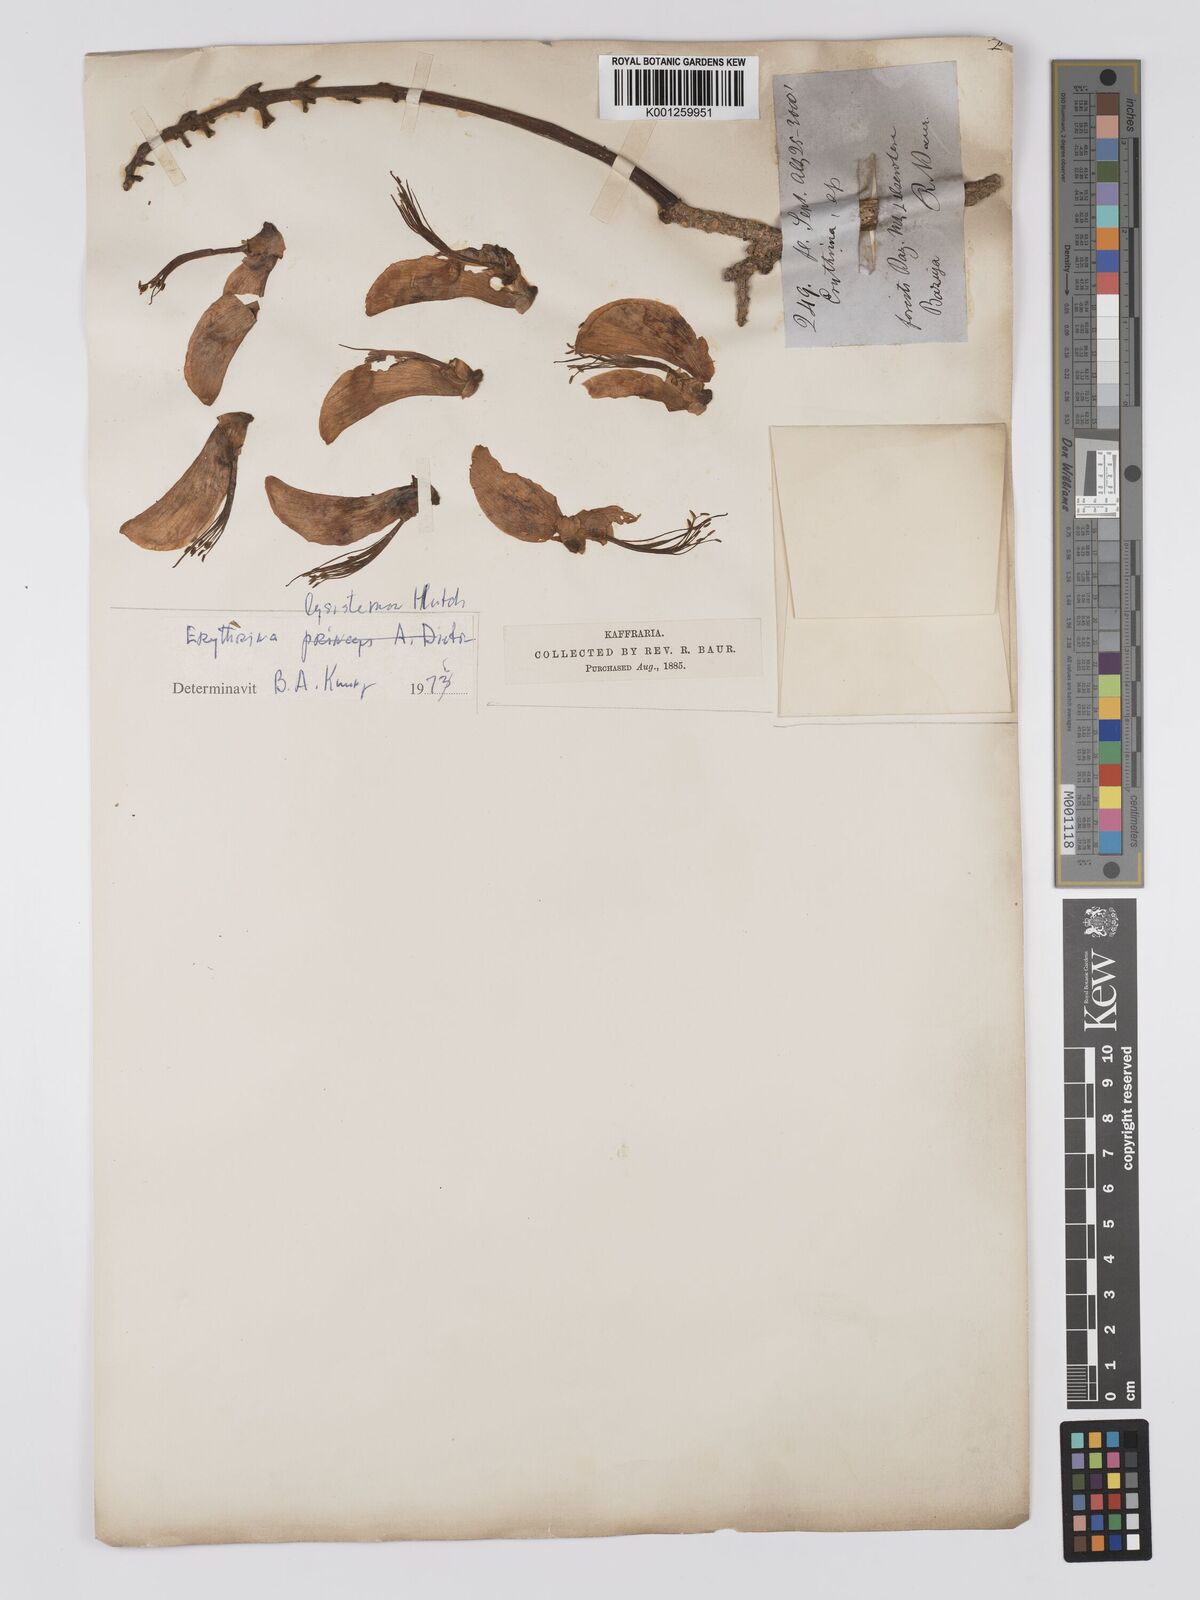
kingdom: Plantae
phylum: Tracheophyta
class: Magnoliopsida
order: Fabales
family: Fabaceae
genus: Erythrina
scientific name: Erythrina lysistemon
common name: Common coral tree
